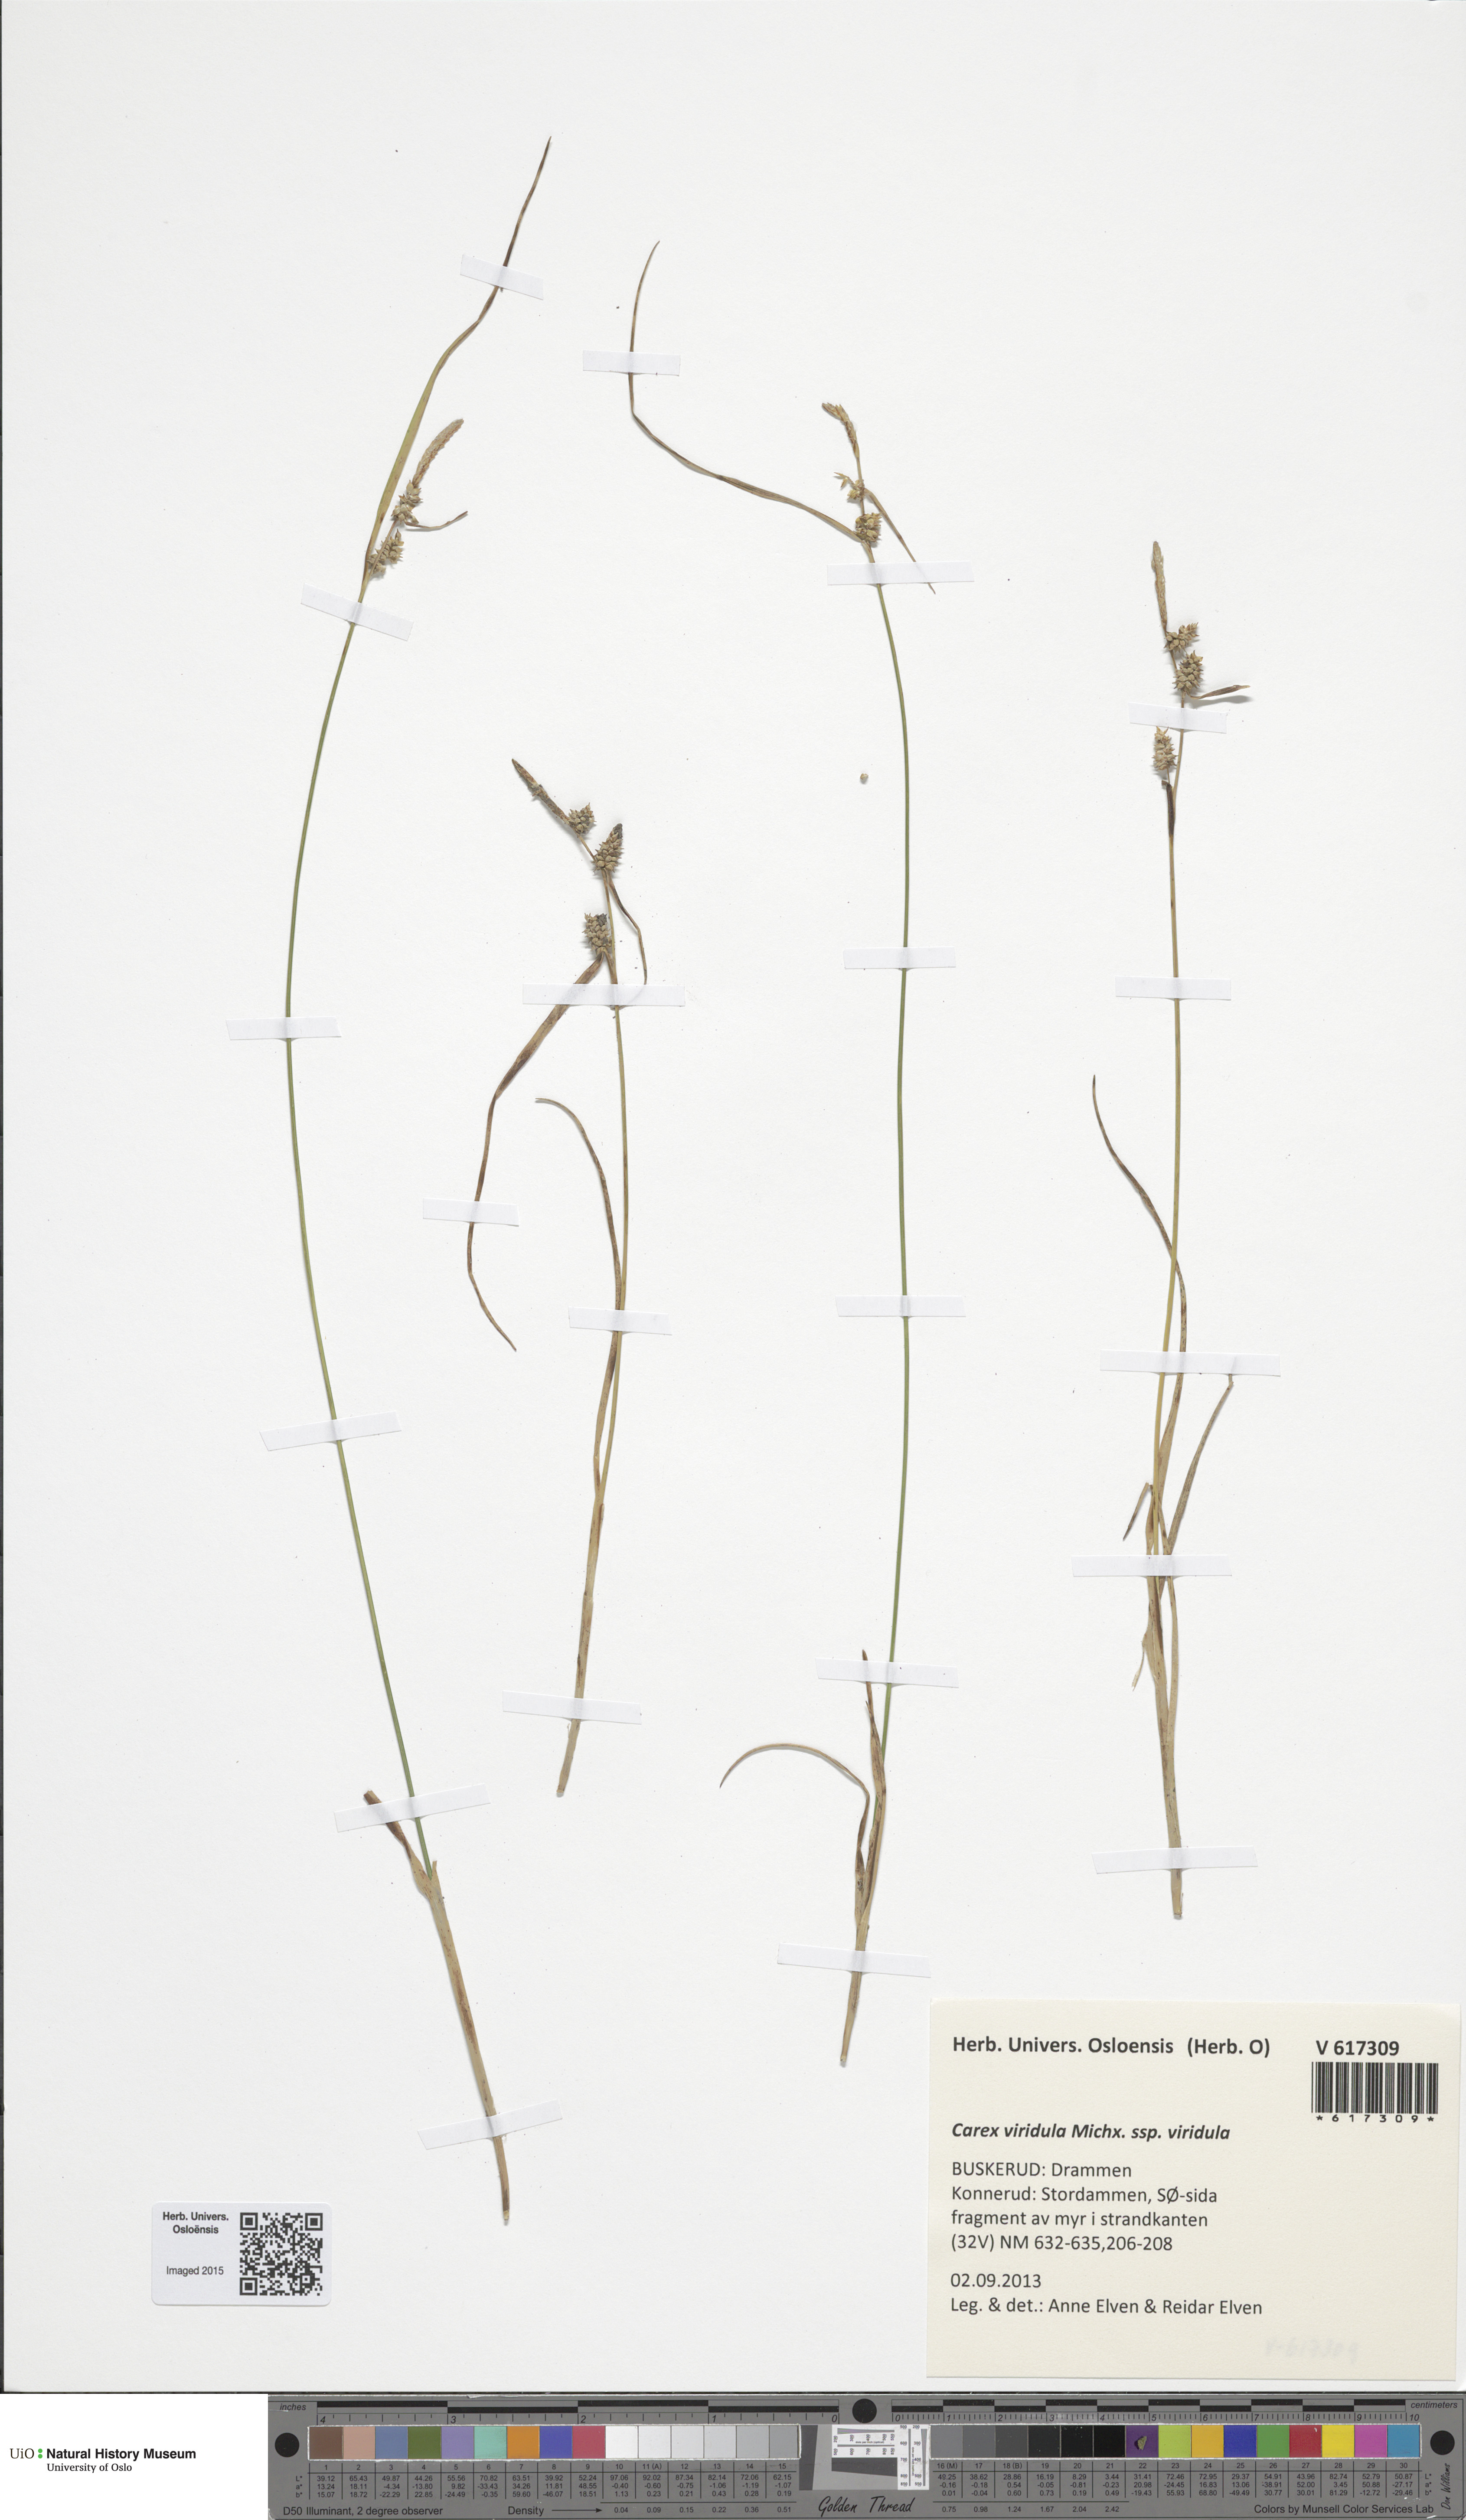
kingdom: Plantae
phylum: Tracheophyta
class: Liliopsida
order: Poales
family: Cyperaceae
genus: Carex
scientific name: Carex oederi
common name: Common & small-fruited yellow-sedge
